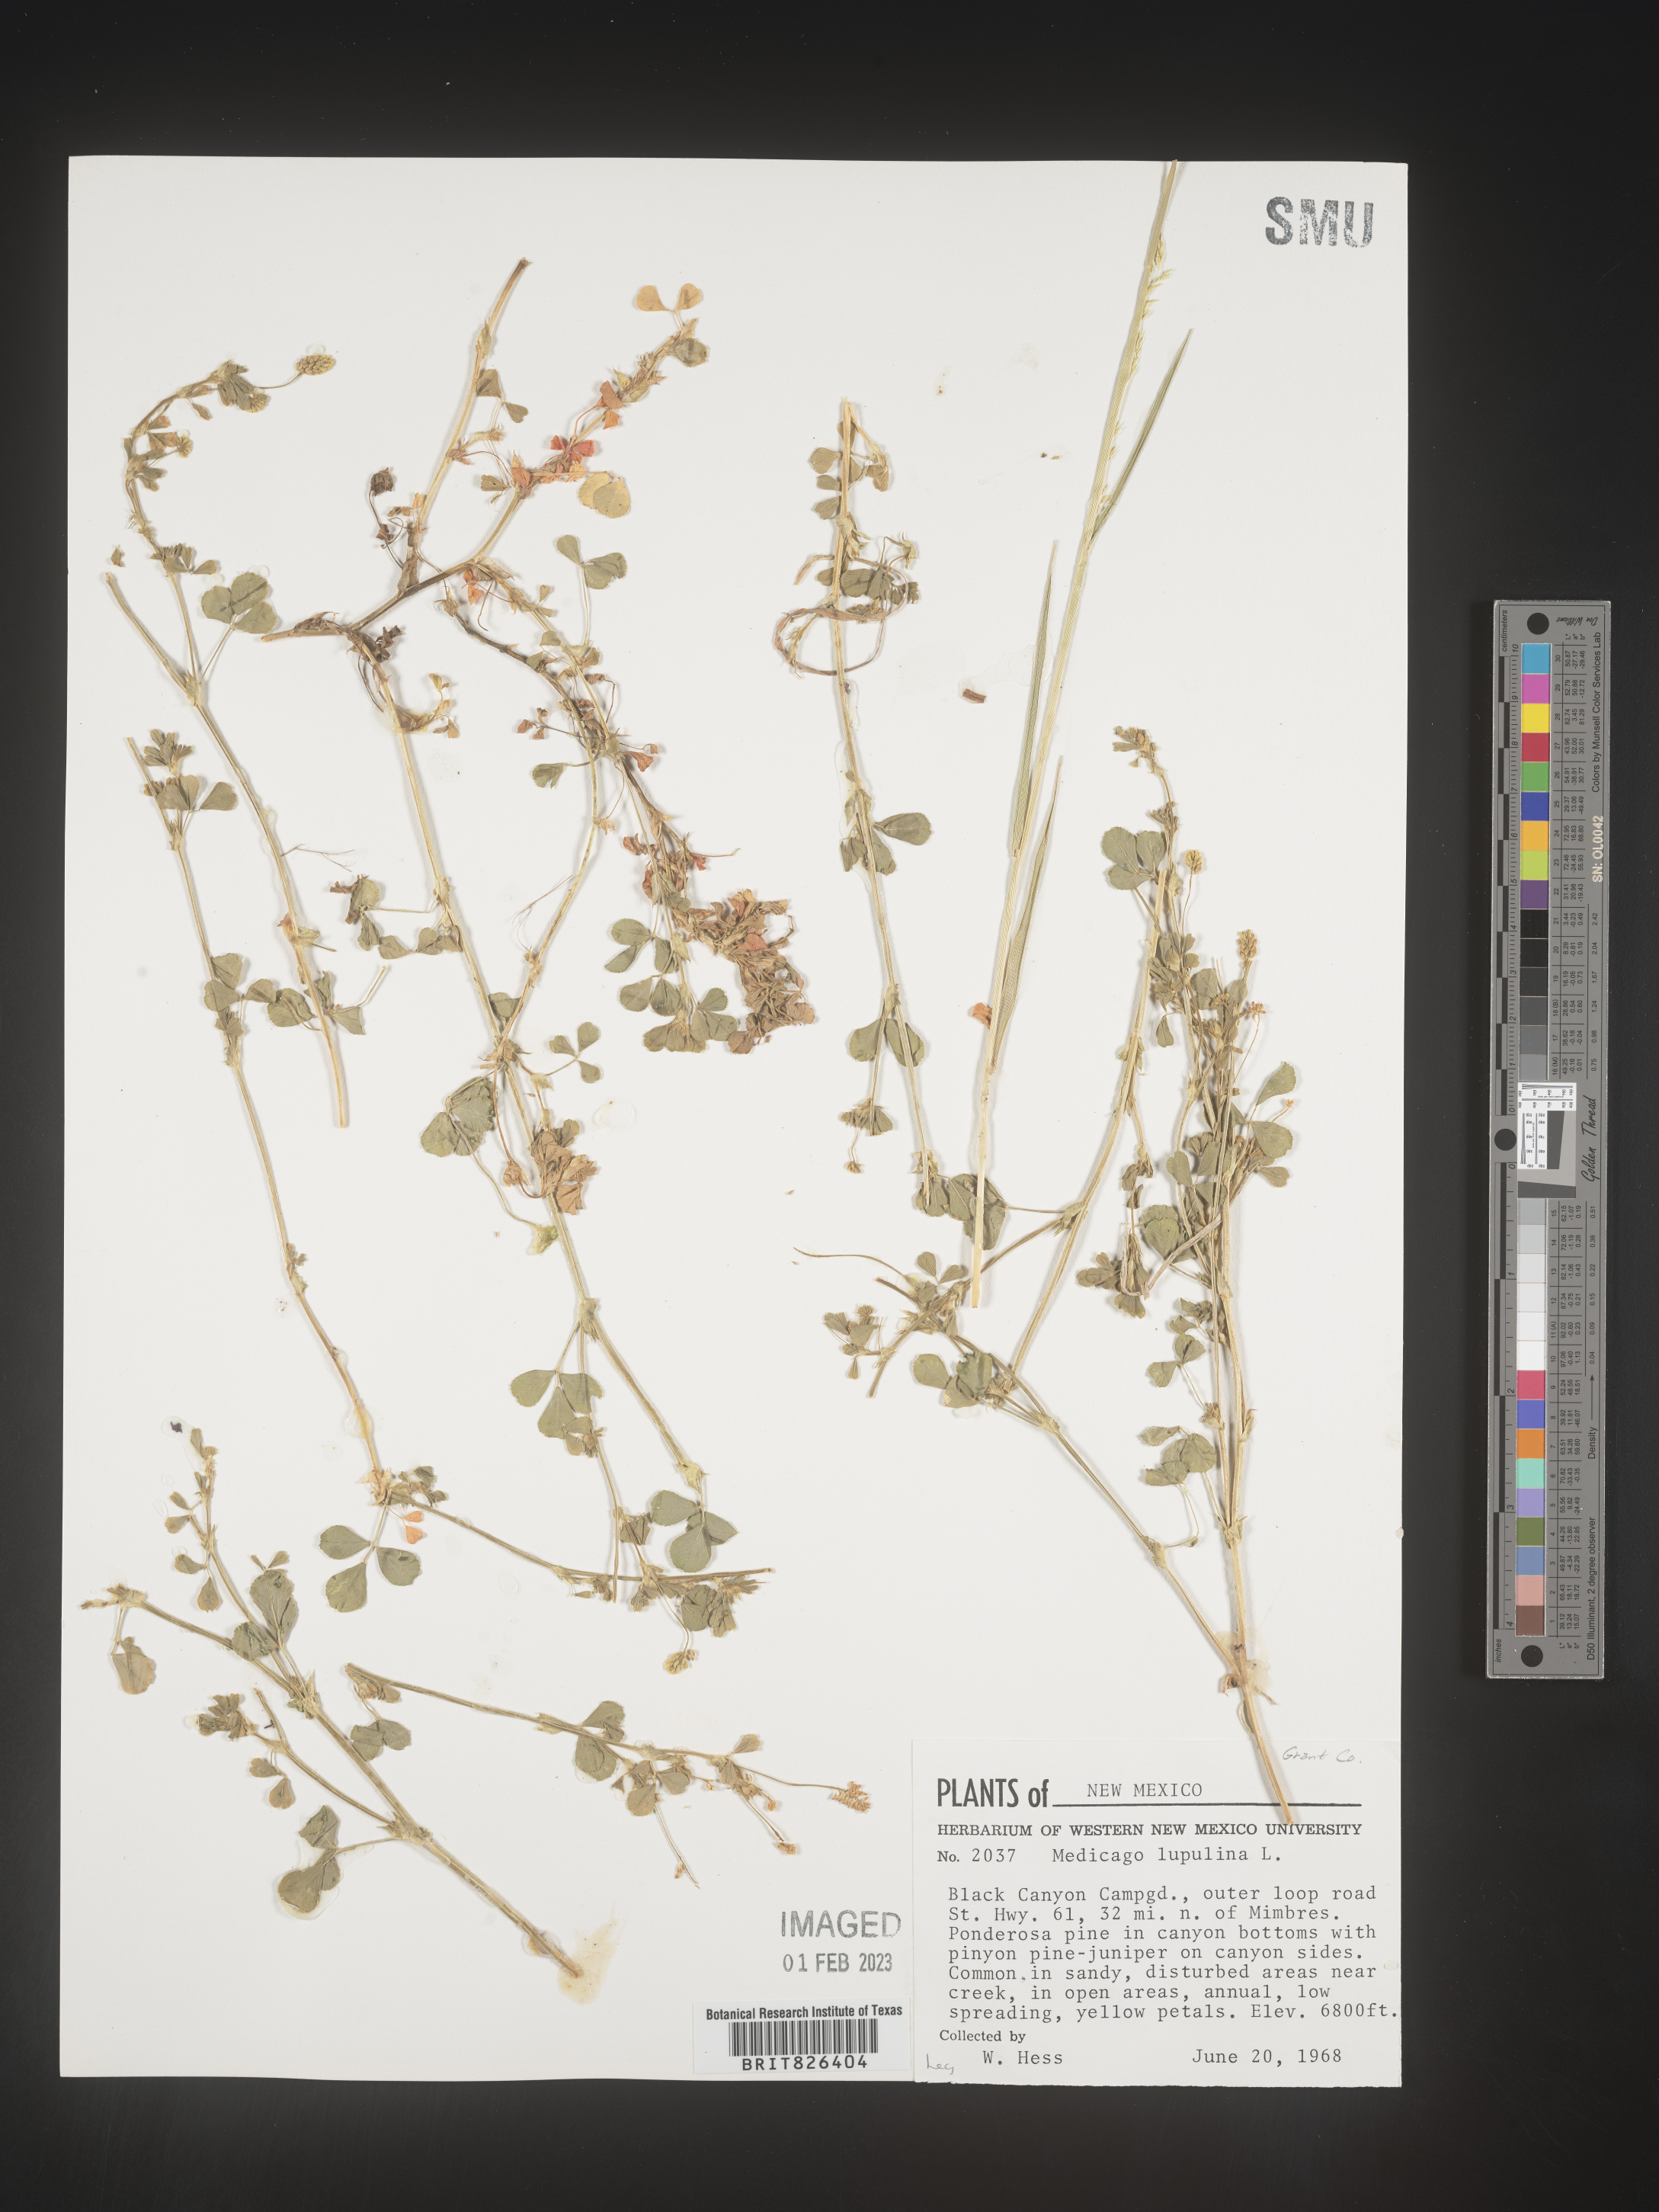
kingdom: Plantae
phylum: Tracheophyta
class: Magnoliopsida
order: Fabales
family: Fabaceae
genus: Medicago
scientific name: Medicago lupulina
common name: Black medick
